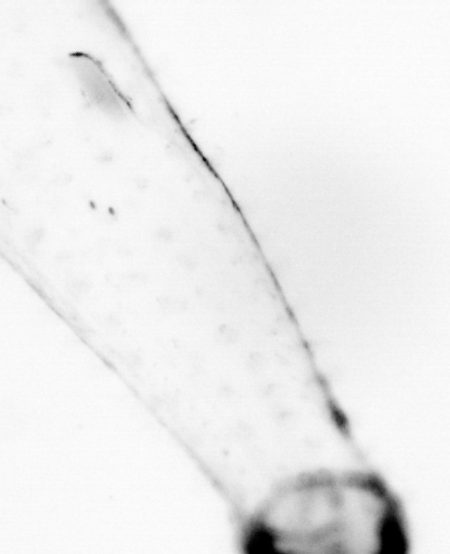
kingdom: Animalia
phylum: Chaetognatha
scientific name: Chaetognatha
